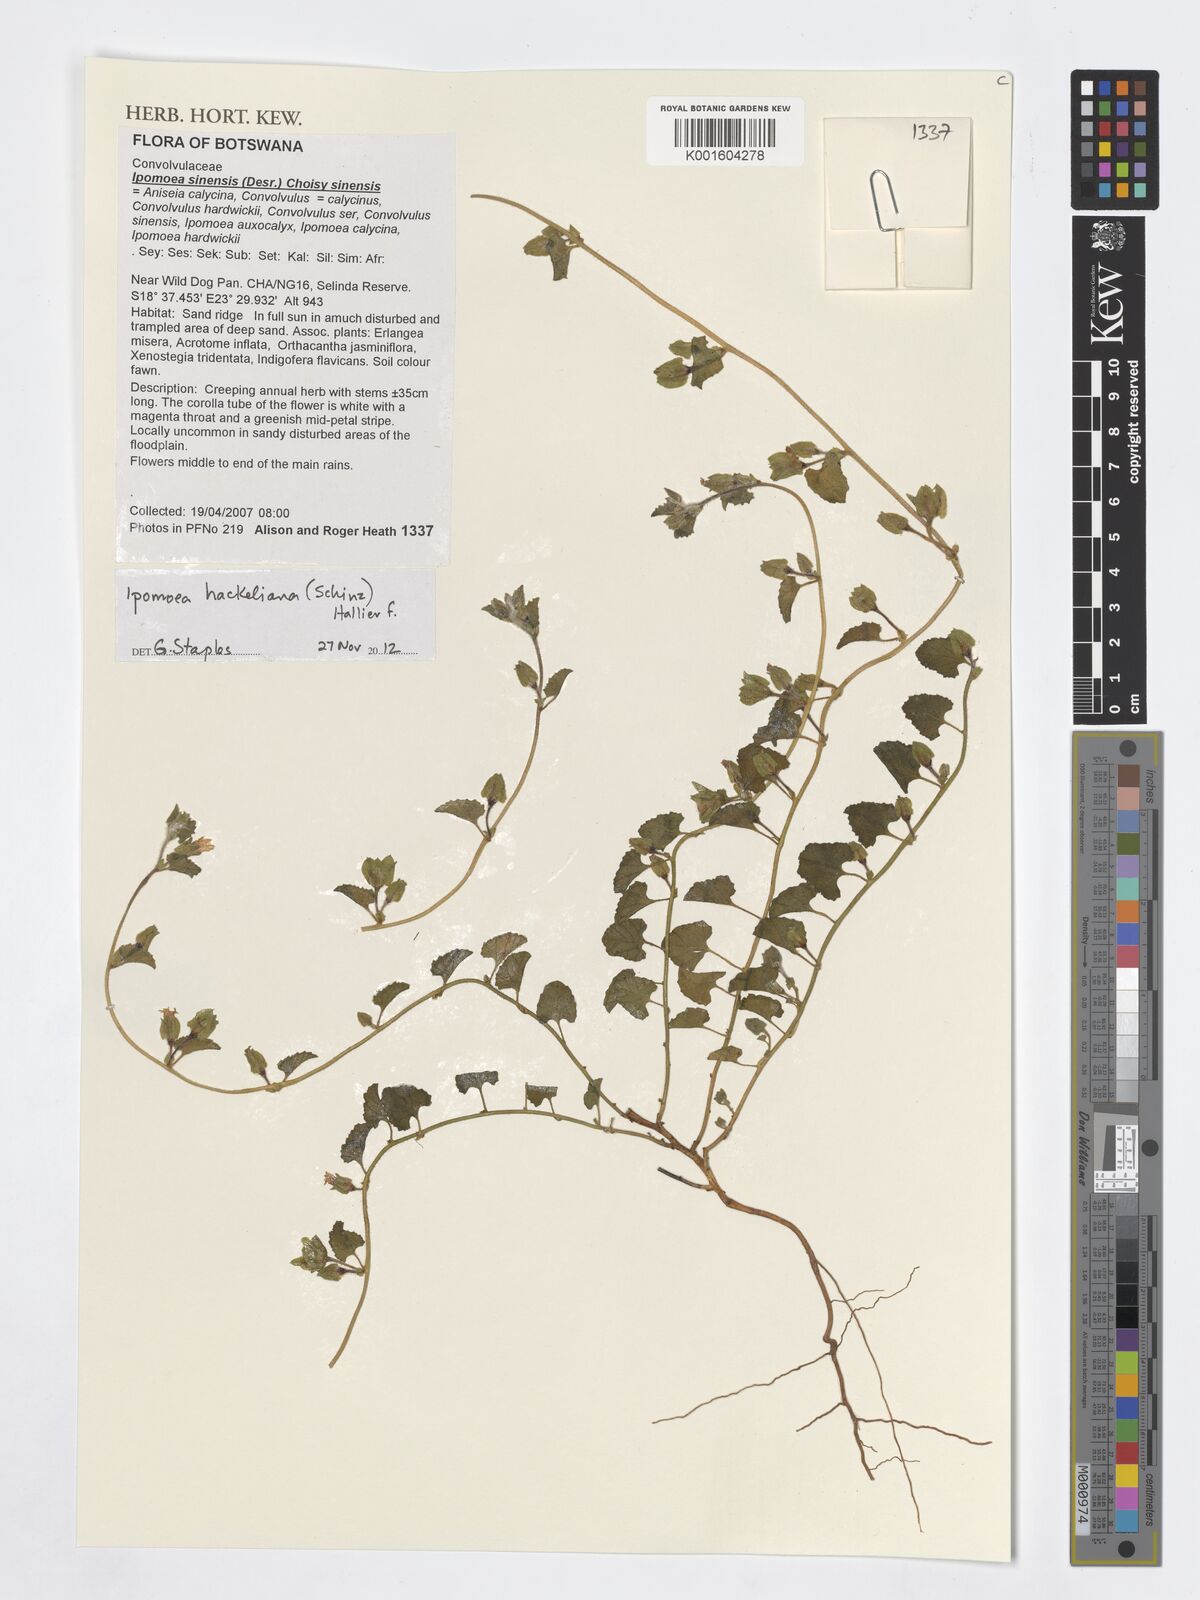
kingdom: Plantae
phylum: Tracheophyta
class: Magnoliopsida
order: Solanales
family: Convolvulaceae
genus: Ipomoea
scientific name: Ipomoea hackeliana
